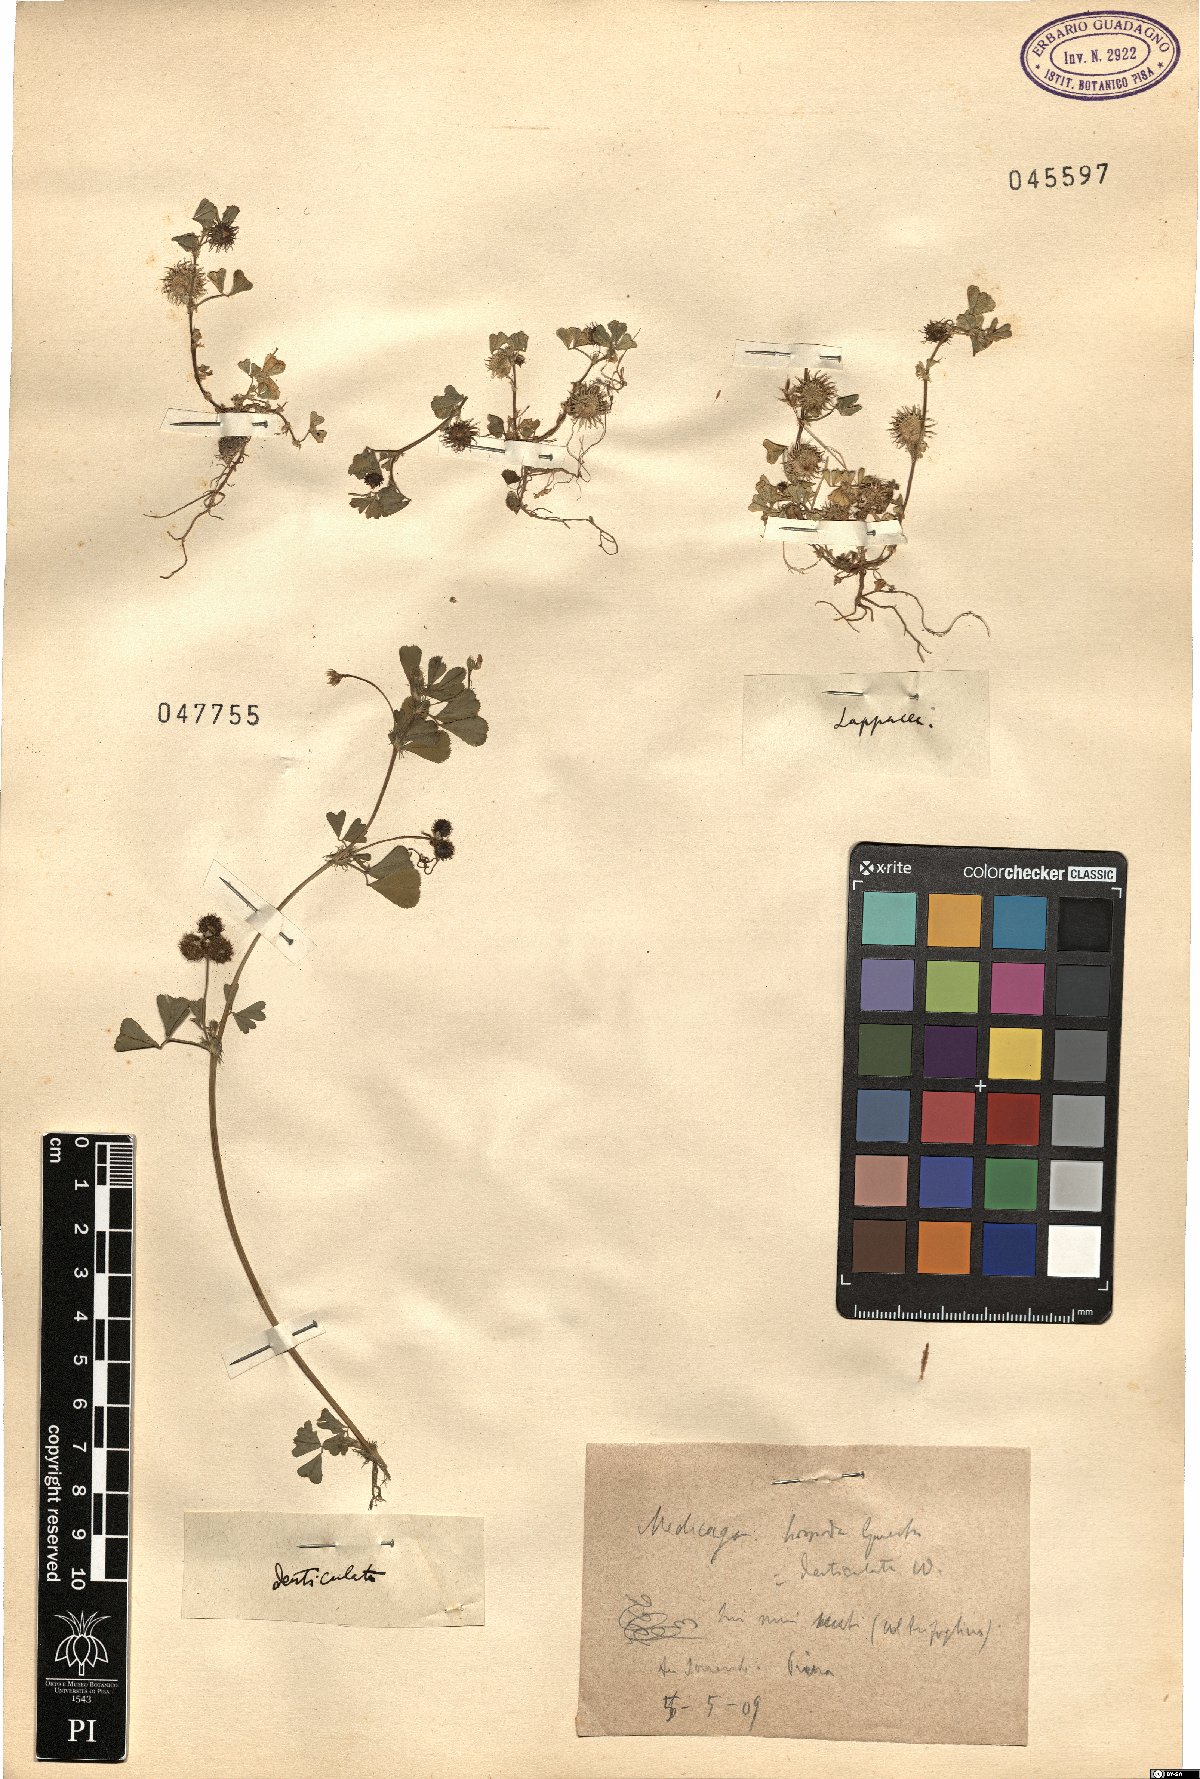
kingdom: Plantae
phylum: Tracheophyta
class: Magnoliopsida
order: Fabales
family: Fabaceae
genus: Medicago
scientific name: Medicago polymorpha
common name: Burclover
